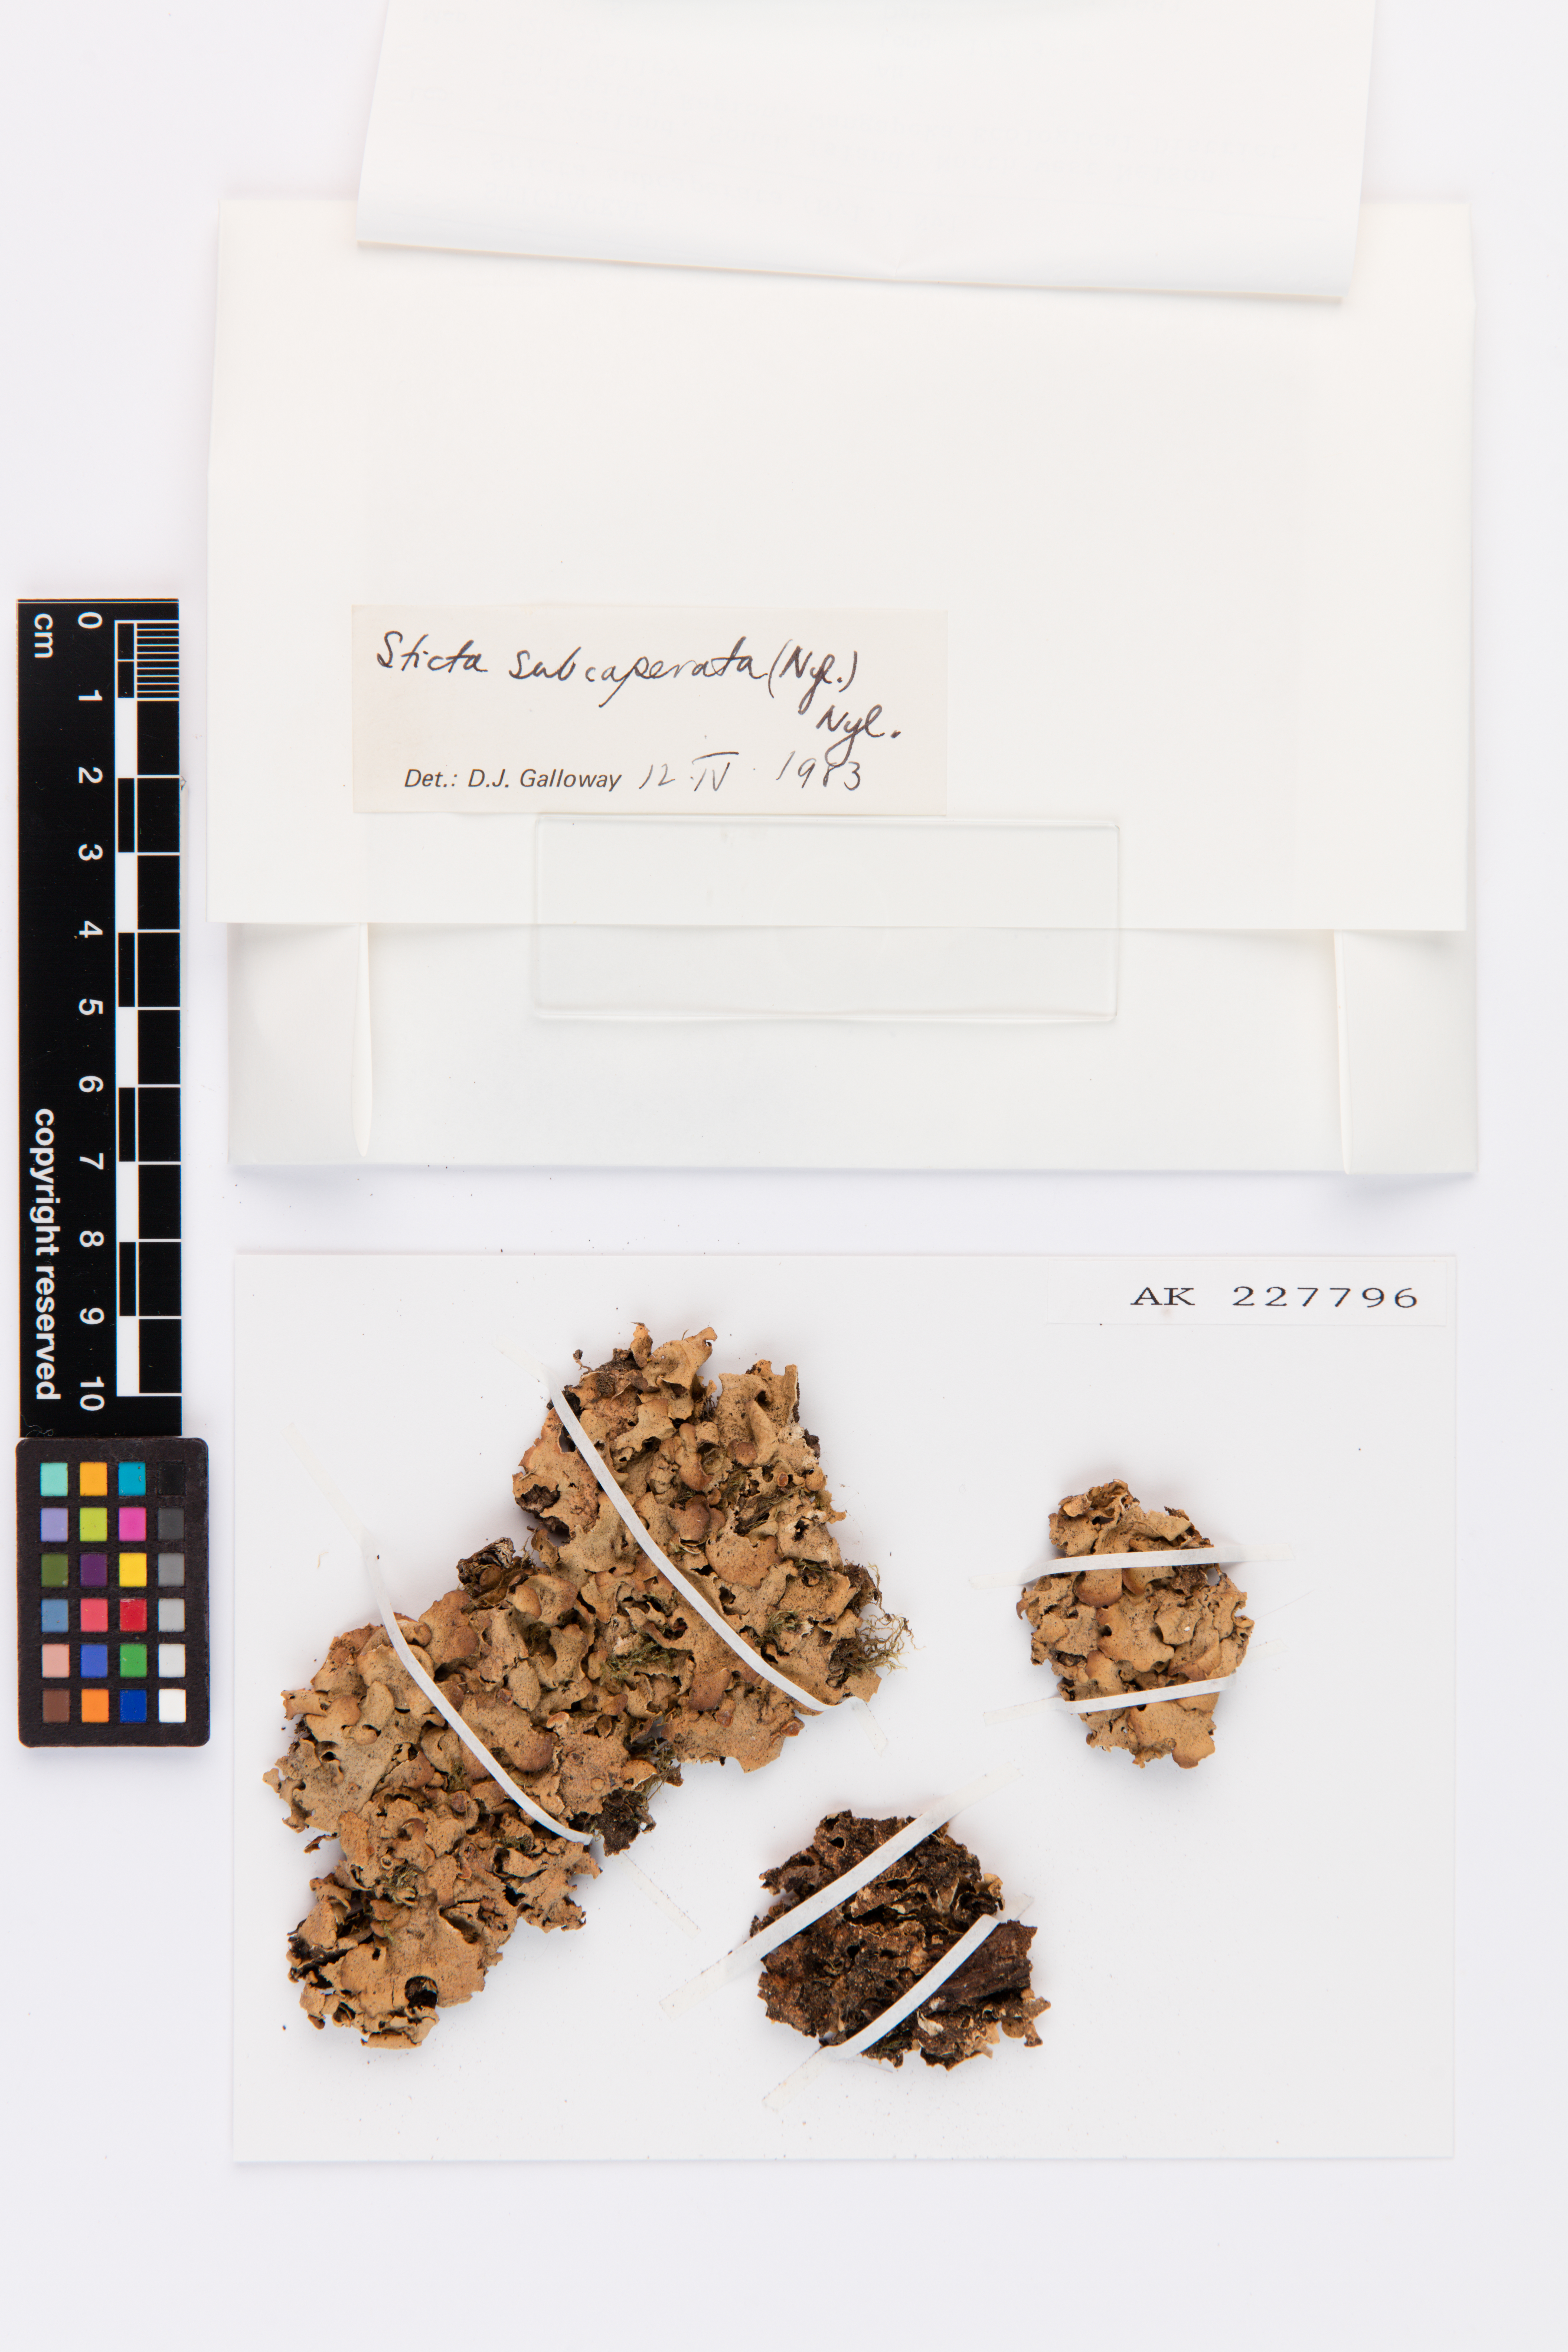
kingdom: Fungi
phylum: Ascomycota
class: Lecanoromycetes
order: Peltigerales
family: Lobariaceae
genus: Sticta
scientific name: Sticta subcaperata
